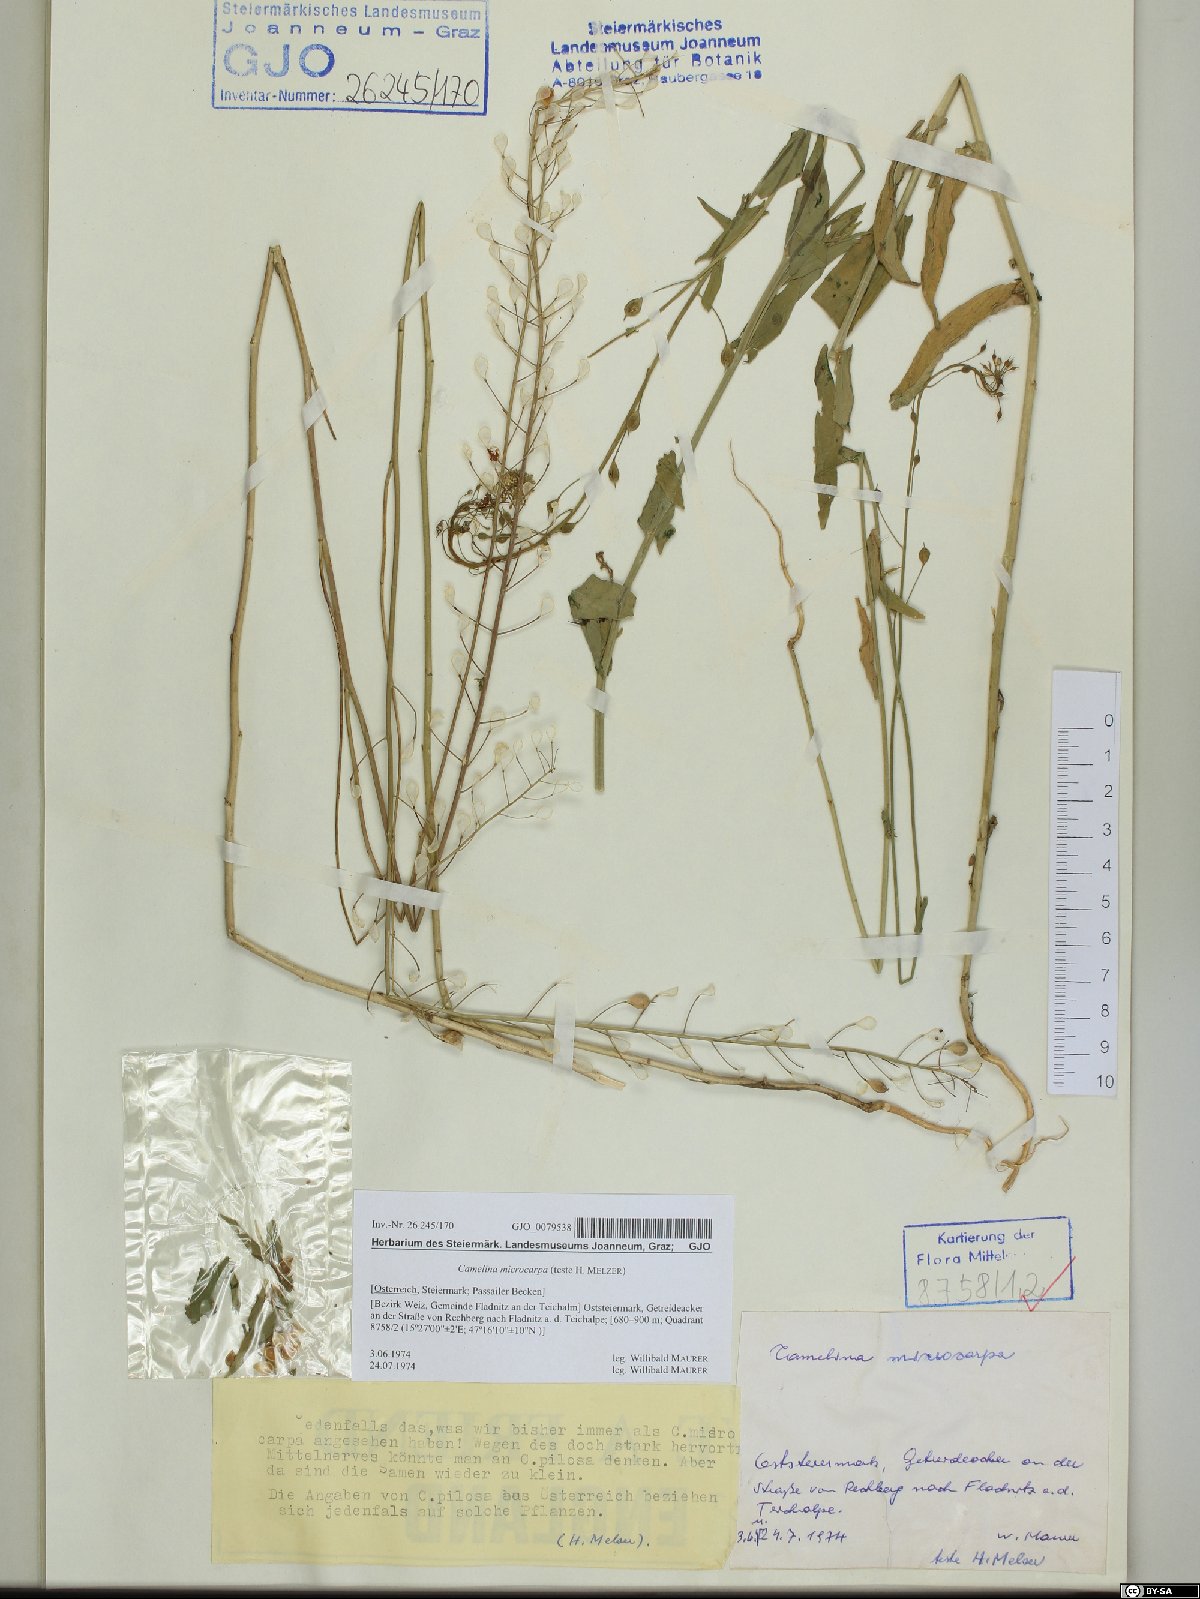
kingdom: Plantae
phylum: Tracheophyta
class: Magnoliopsida
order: Brassicales
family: Brassicaceae
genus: Camelina
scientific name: Camelina microcarpa
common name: Lesser gold-of-pleasure
